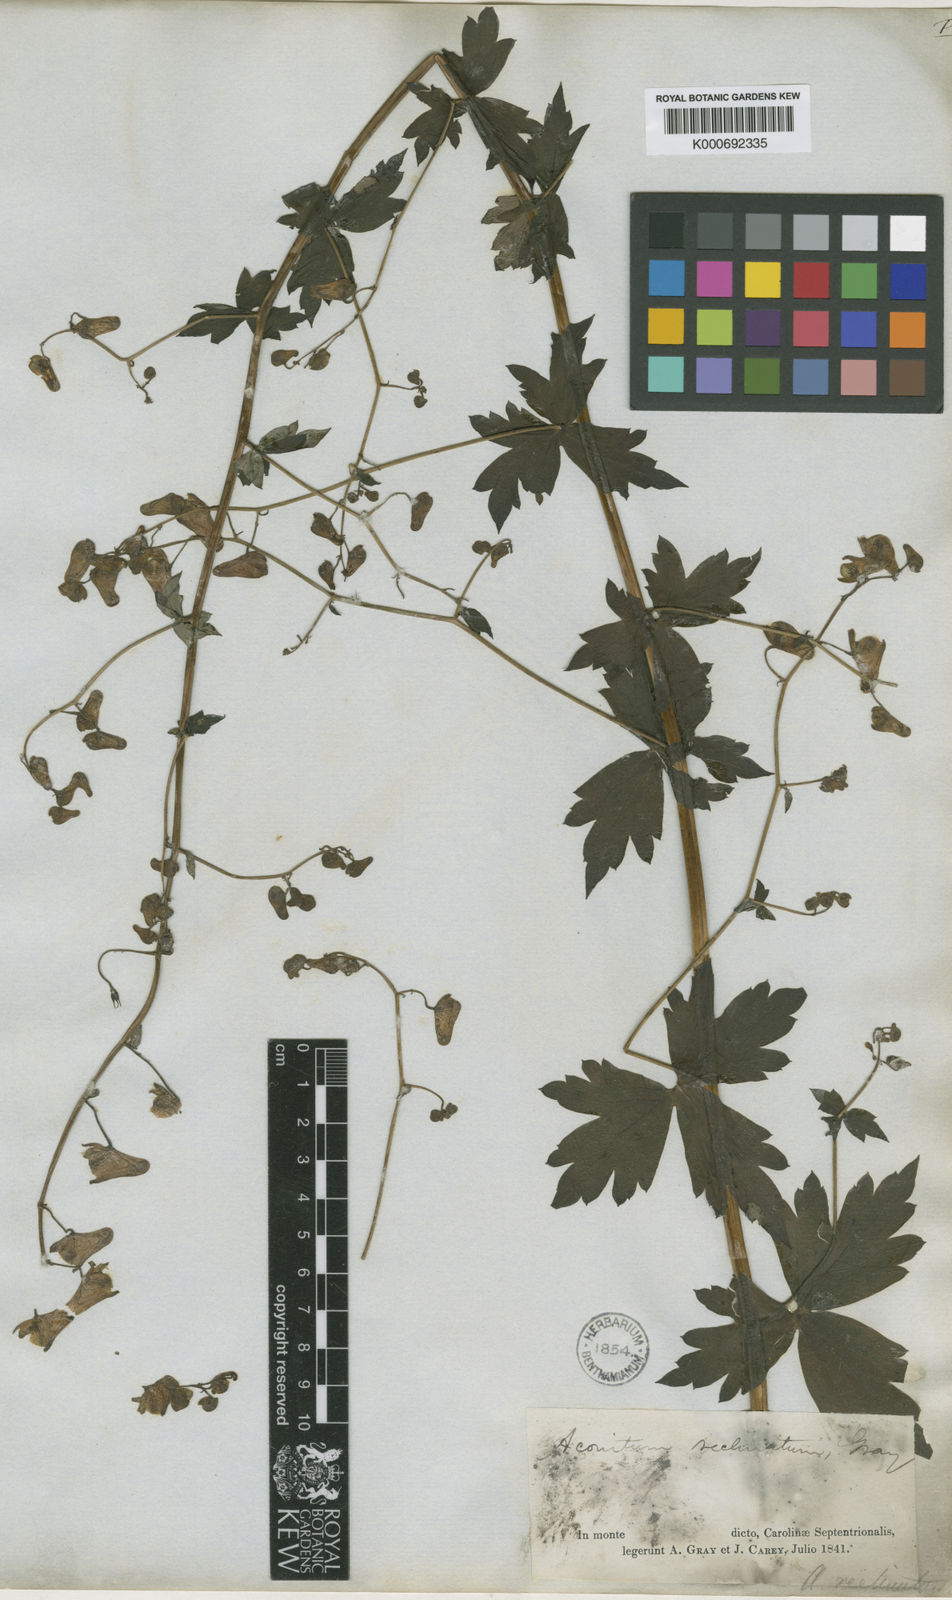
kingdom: Plantae
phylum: Tracheophyta
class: Magnoliopsida
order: Ranunculales
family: Ranunculaceae
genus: Aconitum
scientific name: Aconitum reclinatum
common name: Trailing wolfsbane
